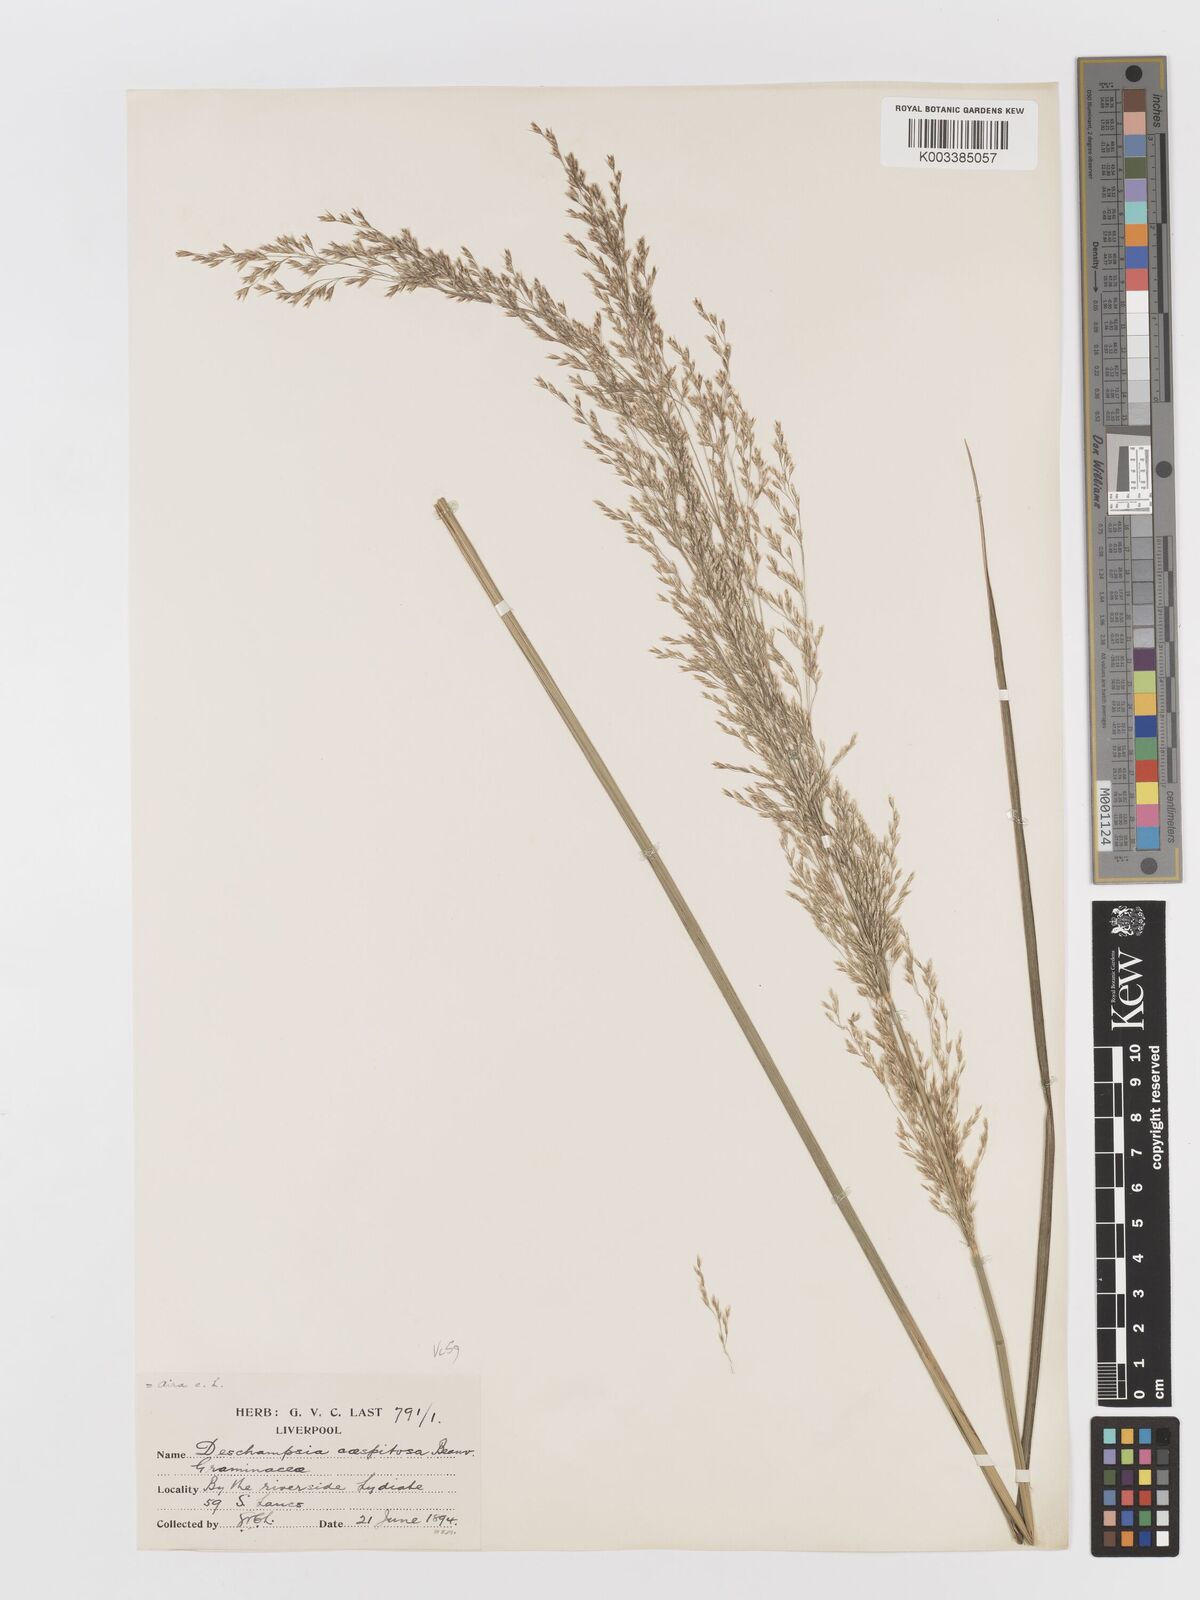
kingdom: Plantae
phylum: Tracheophyta
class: Liliopsida
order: Poales
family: Poaceae
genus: Deschampsia
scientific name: Deschampsia cespitosa
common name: Tufted hair-grass
